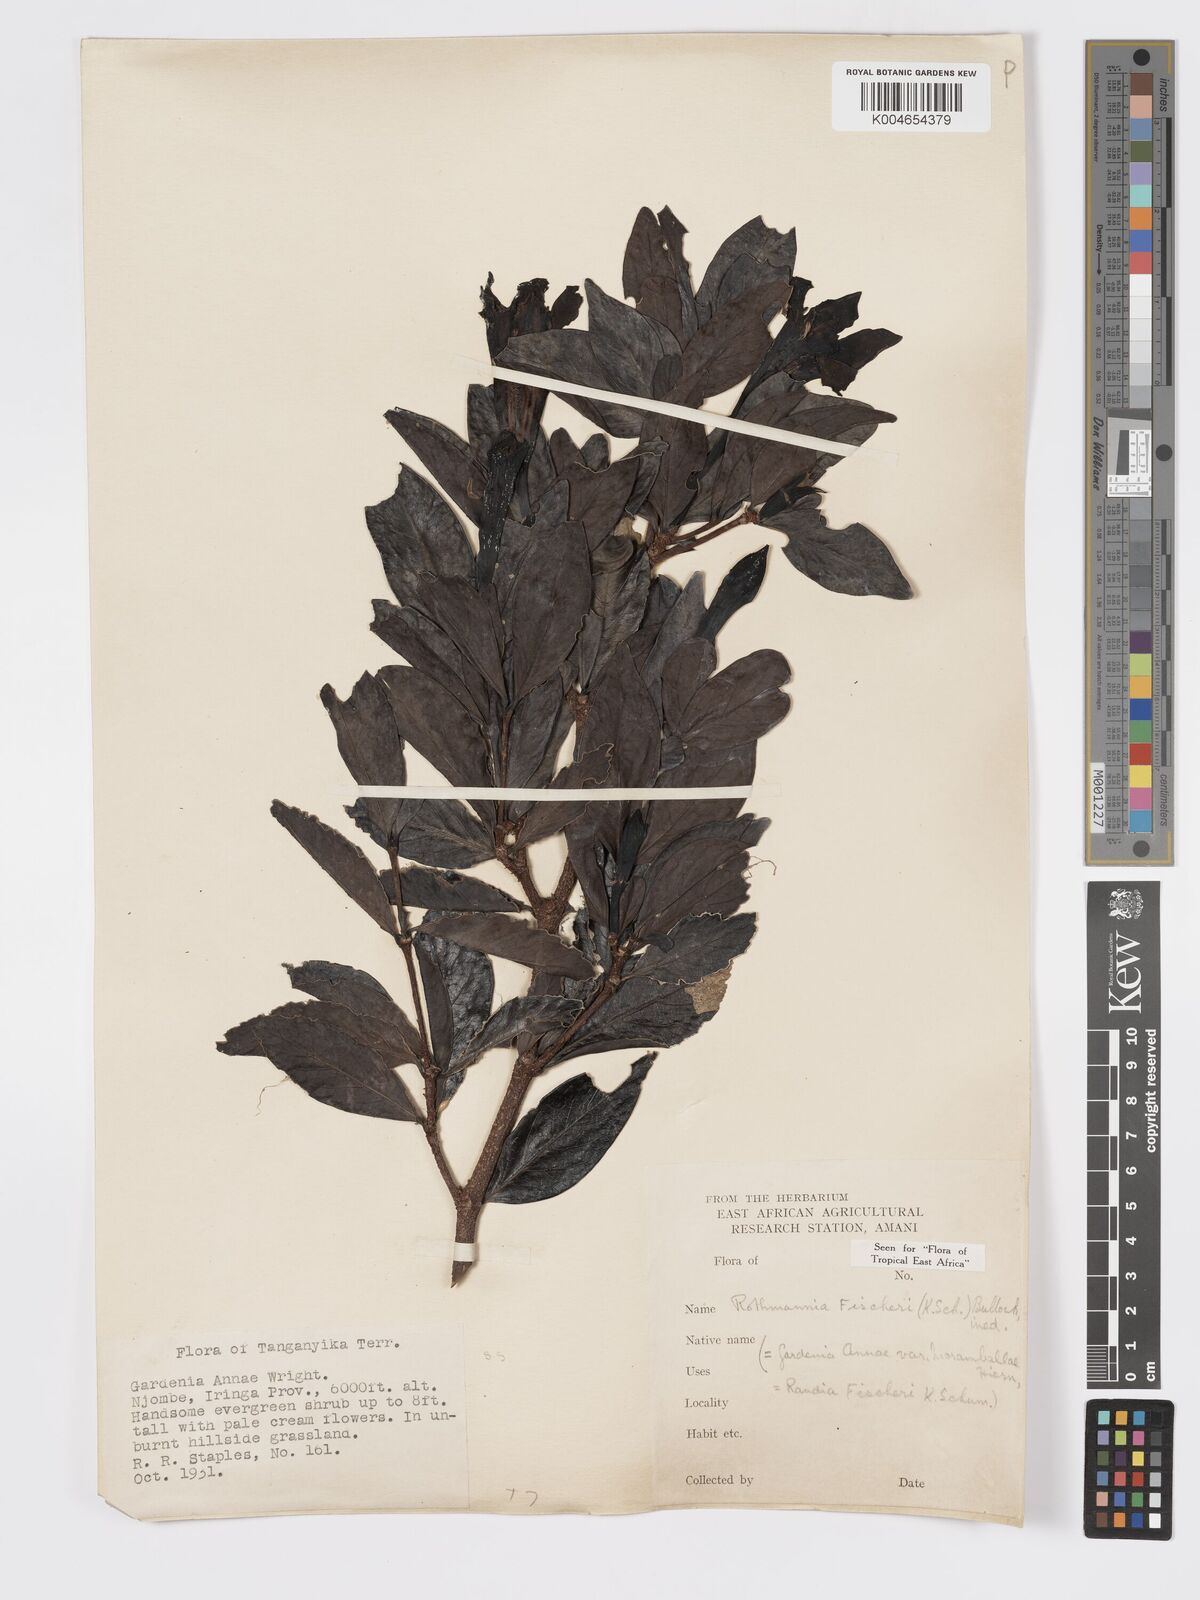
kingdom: Plantae
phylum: Tracheophyta
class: Magnoliopsida
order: Gentianales
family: Rubiaceae
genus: Rothmannia
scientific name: Rothmannia fischeri
